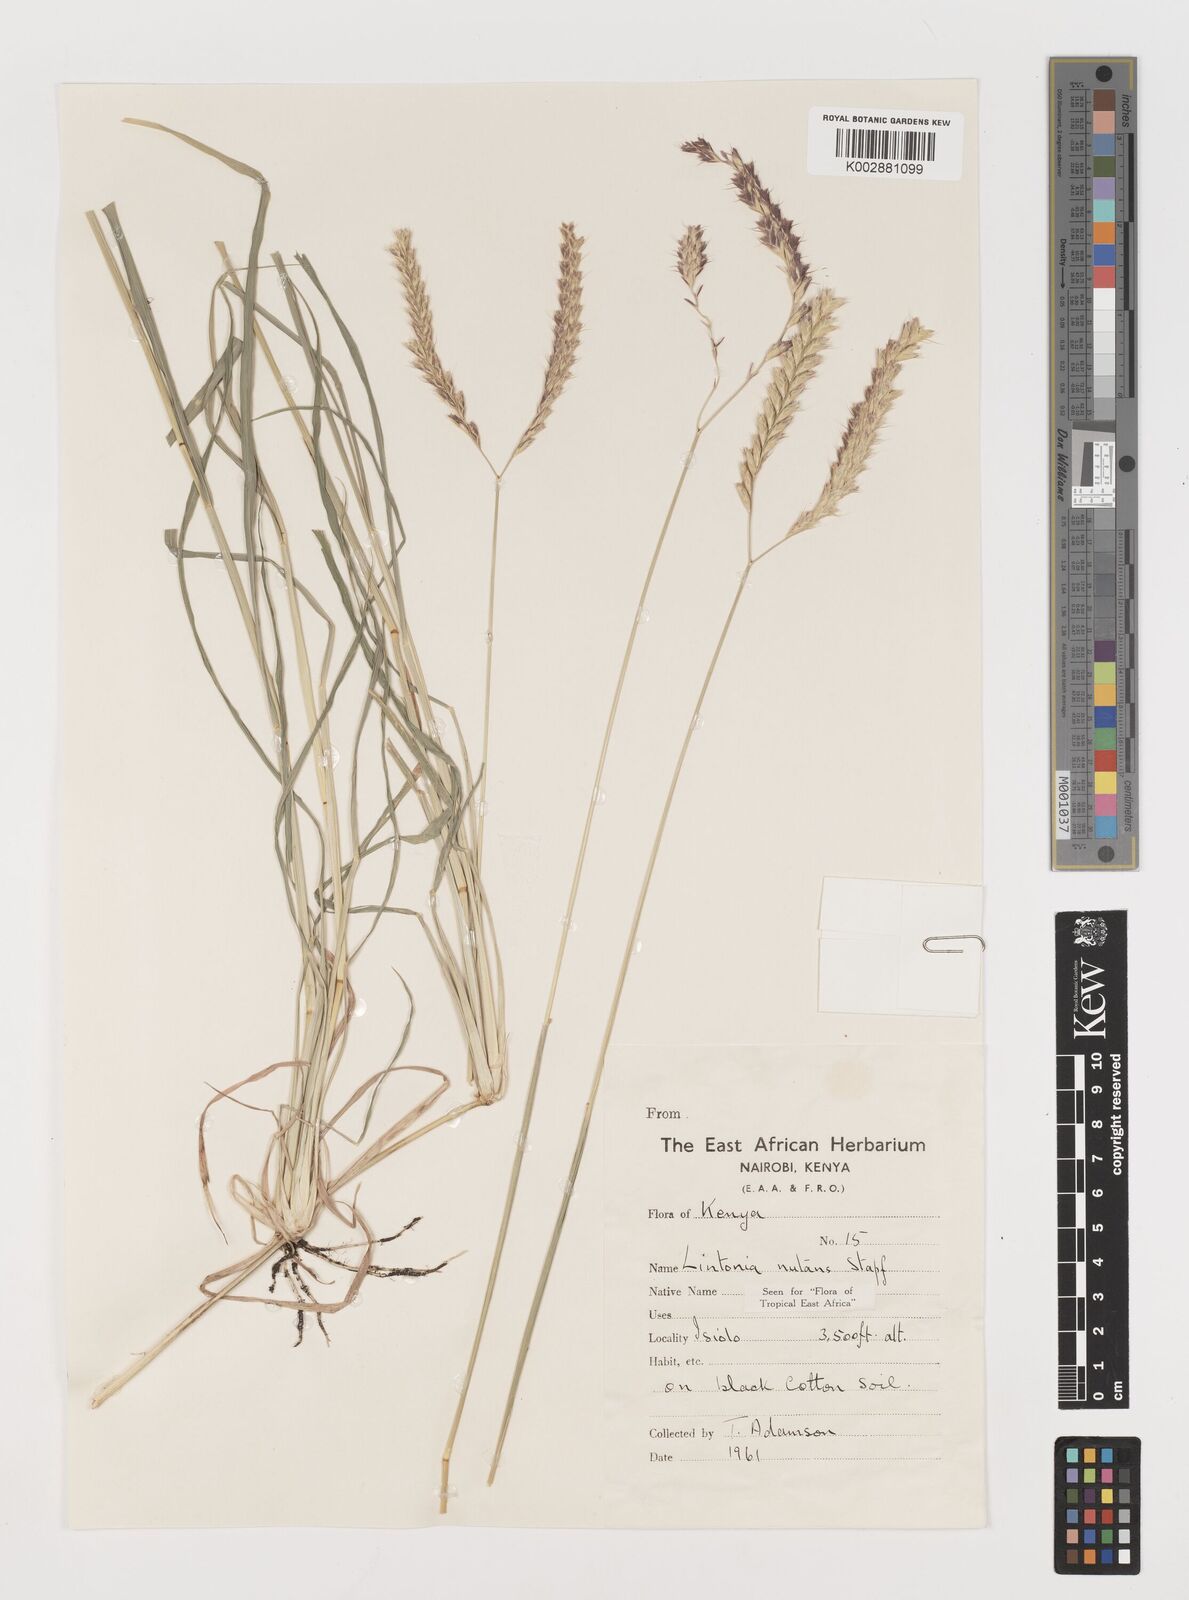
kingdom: Plantae
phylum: Tracheophyta
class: Liliopsida
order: Poales
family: Poaceae
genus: Chloris
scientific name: Chloris nutans
